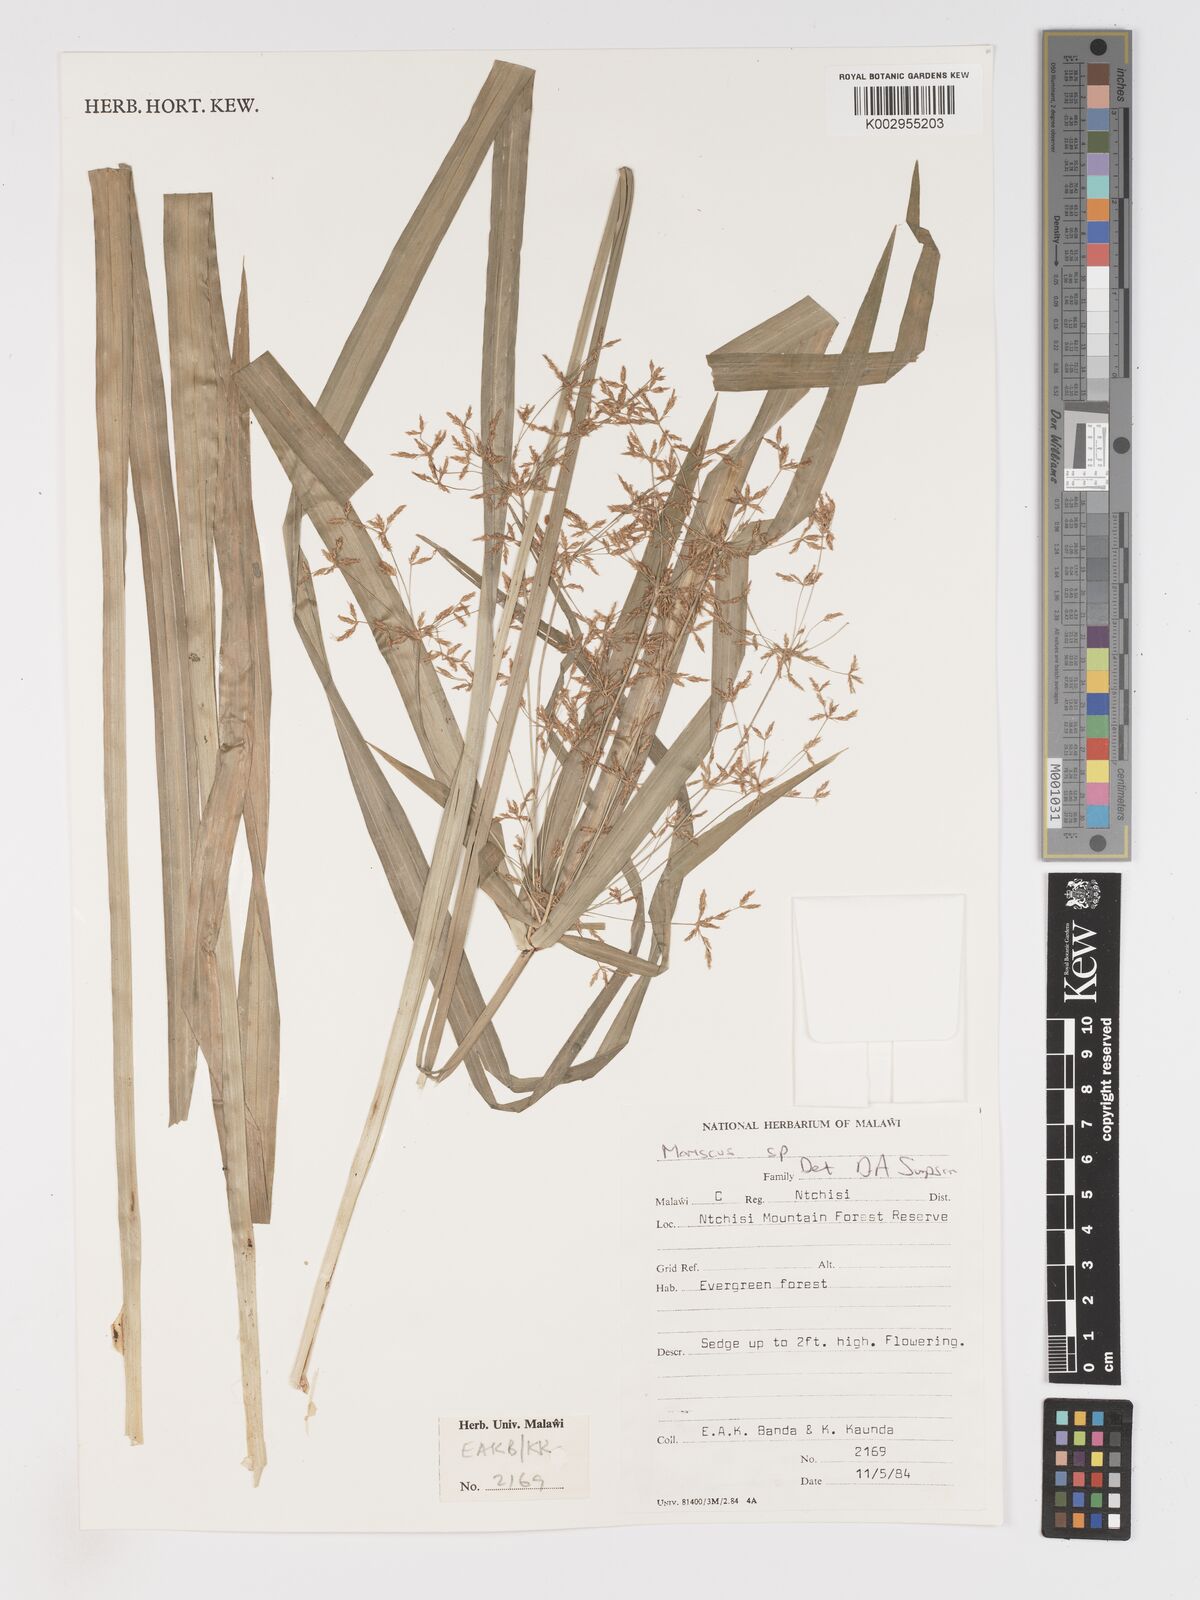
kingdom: Plantae
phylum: Tracheophyta
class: Liliopsida
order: Poales
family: Cyperaceae
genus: Cyperus
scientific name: Cyperus
